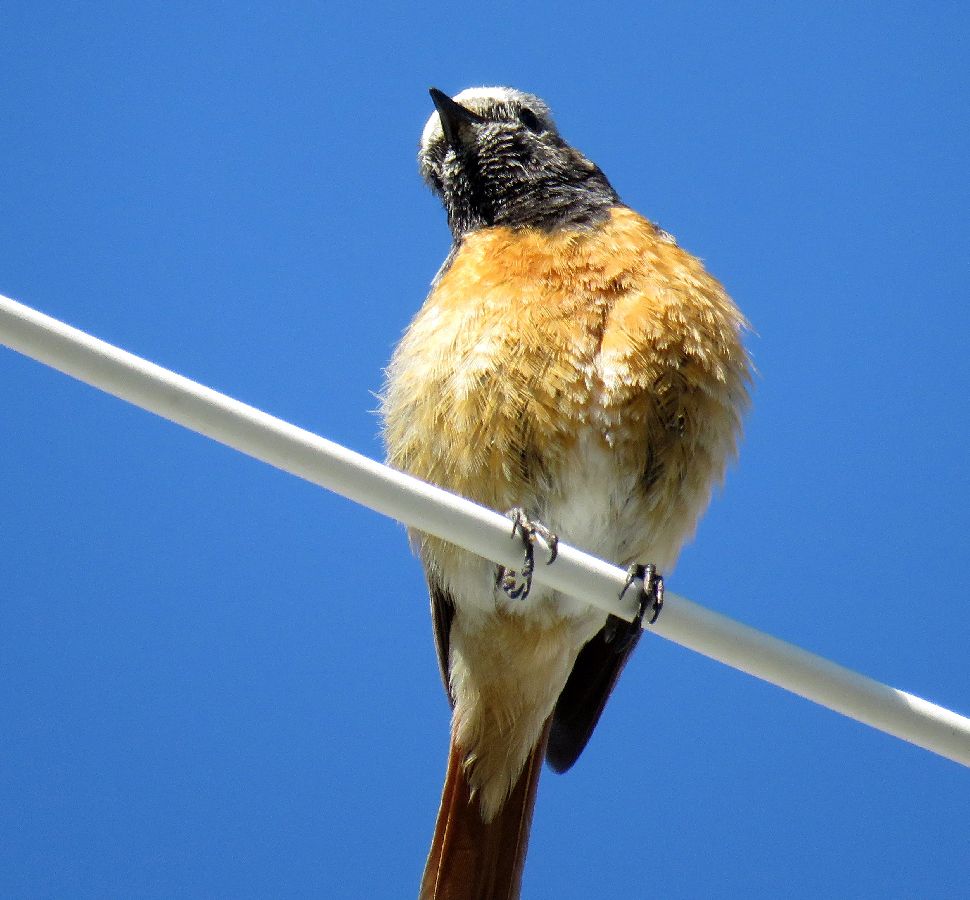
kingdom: Animalia
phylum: Chordata
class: Aves
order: Passeriformes
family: Muscicapidae
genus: Phoenicurus
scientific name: Phoenicurus phoenicurus
